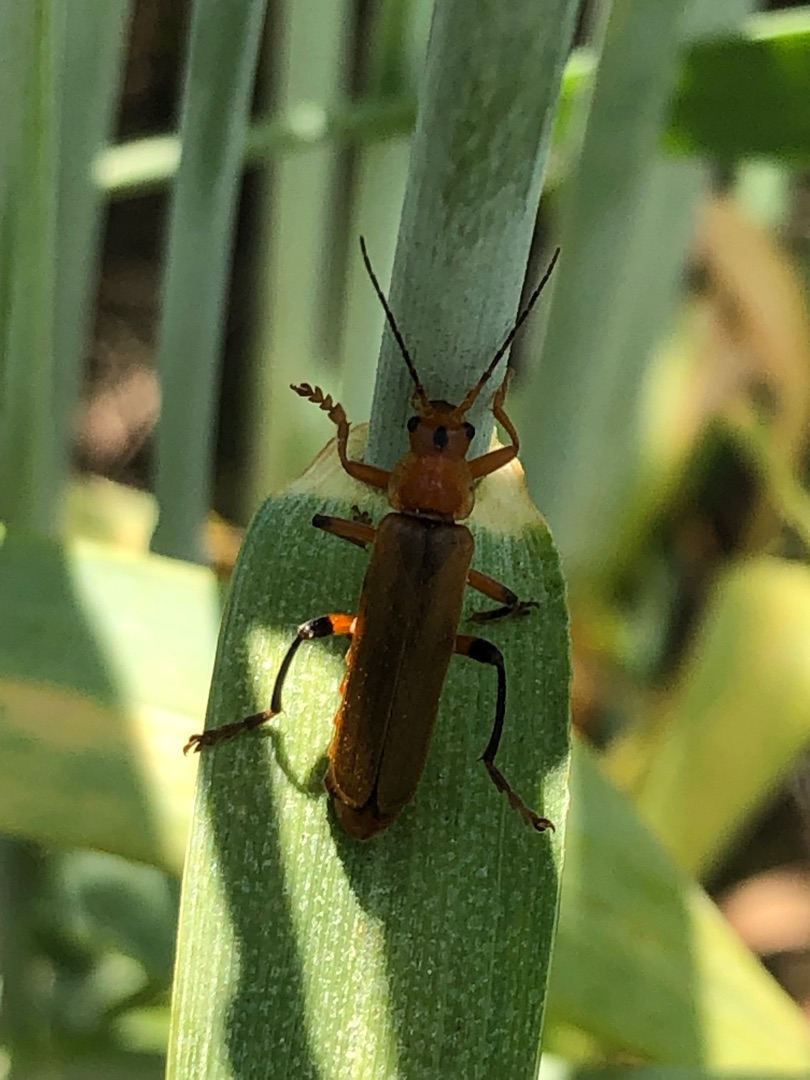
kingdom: Animalia
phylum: Arthropoda
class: Insecta
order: Coleoptera
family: Cantharidae
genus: Cantharis
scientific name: Cantharis livida
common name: Gul blødvinge
